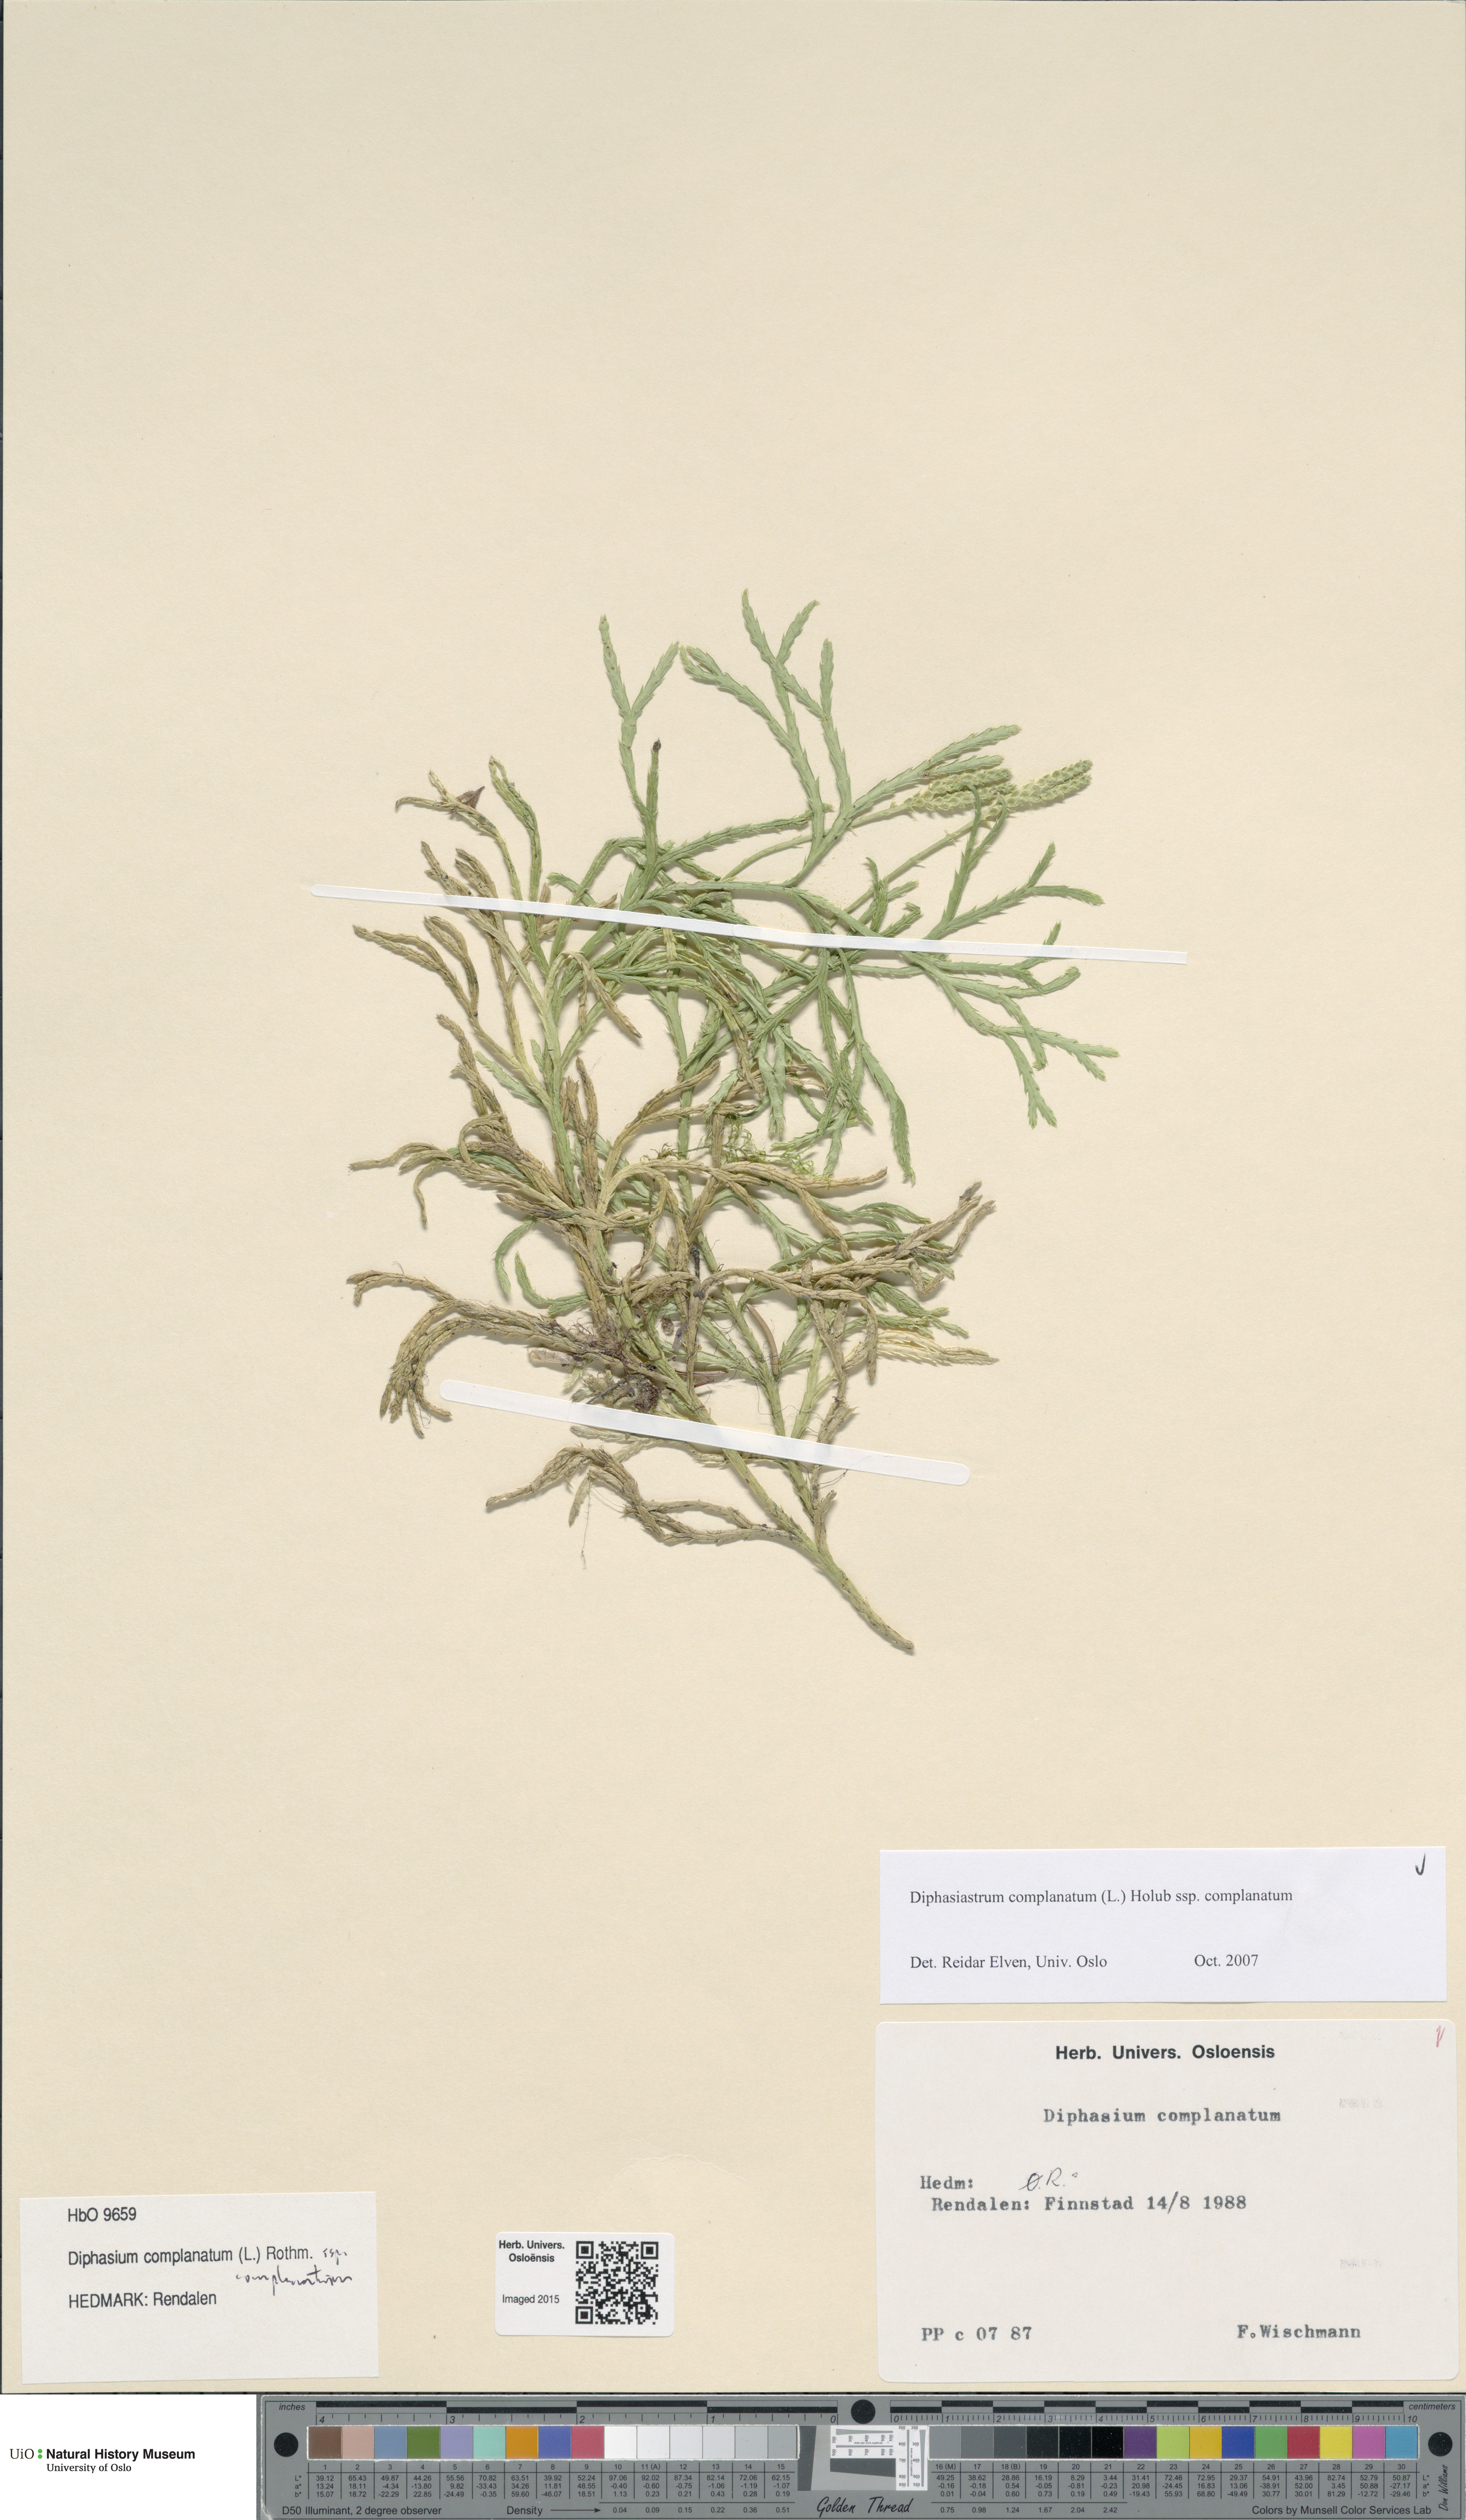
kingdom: Plantae
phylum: Tracheophyta
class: Lycopodiopsida
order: Lycopodiales
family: Lycopodiaceae
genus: Diphasiastrum
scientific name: Diphasiastrum complanatum
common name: Northern running-pine
